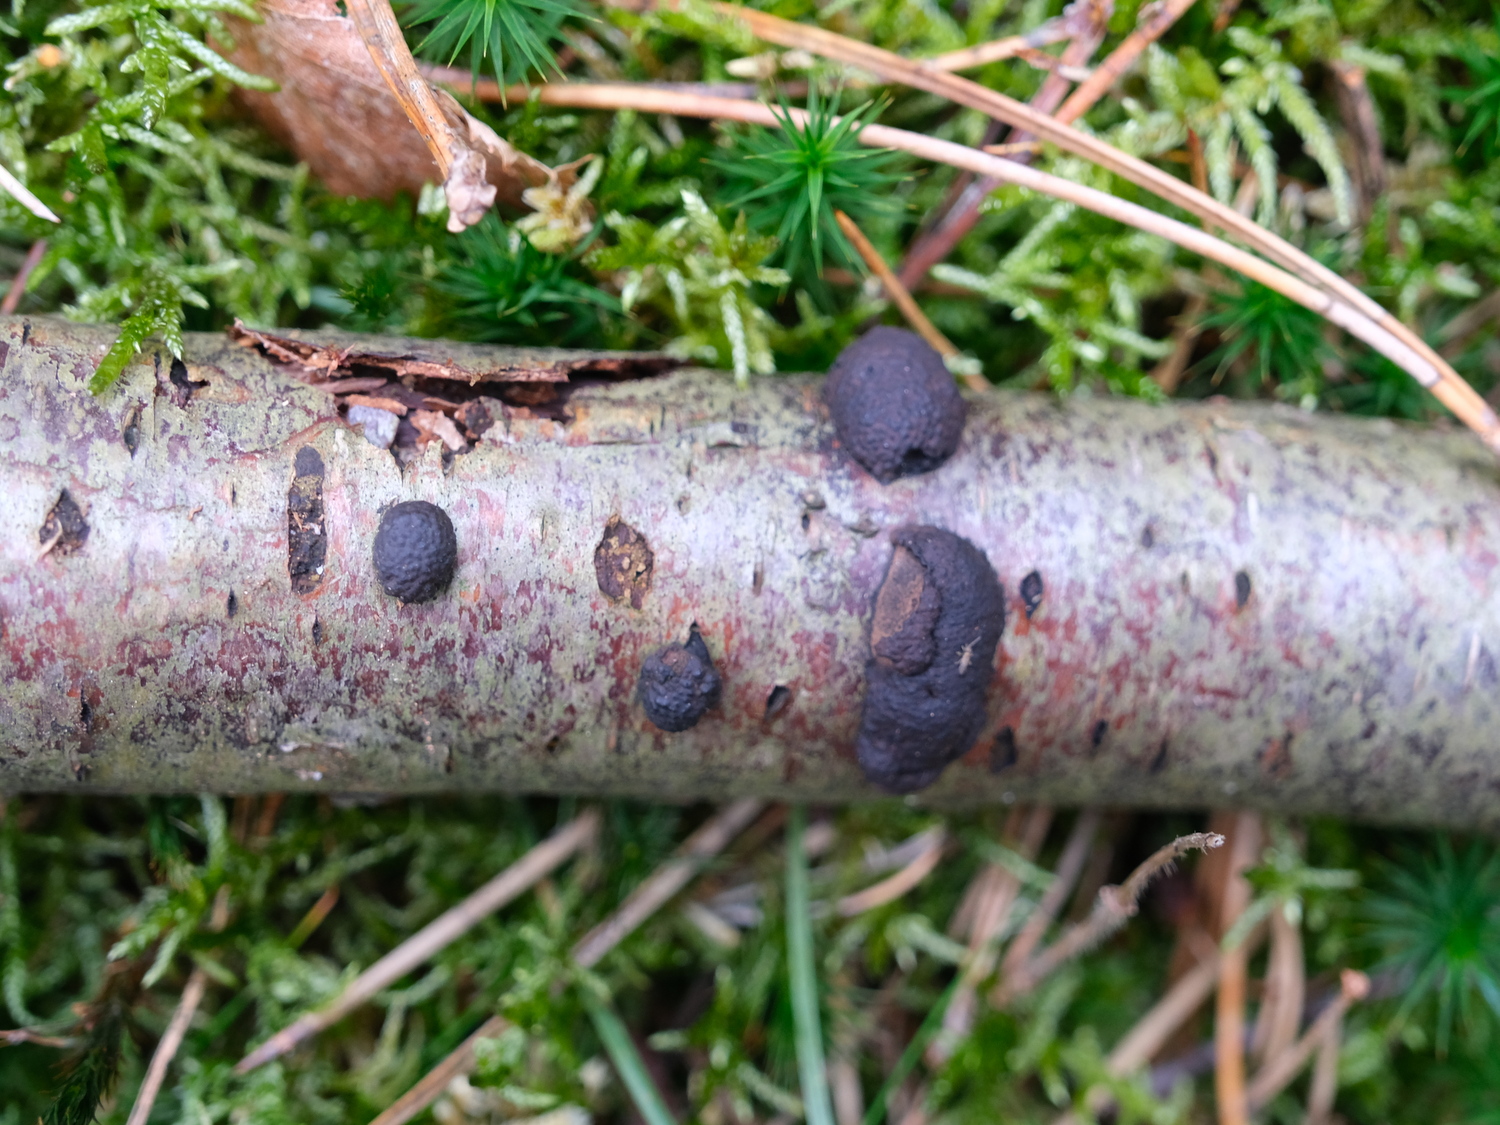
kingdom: Fungi
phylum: Ascomycota
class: Sordariomycetes
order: Xylariales
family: Hypoxylaceae
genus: Jackrogersella
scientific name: Jackrogersella multiformis
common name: foranderlig kulbær
